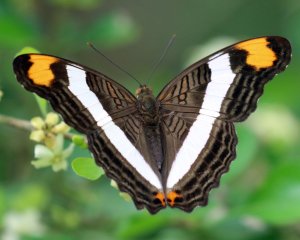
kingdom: Animalia
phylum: Arthropoda
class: Insecta
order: Lepidoptera
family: Nymphalidae
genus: Limenitis
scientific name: Limenitis fessonia
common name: Band-celled Sister
